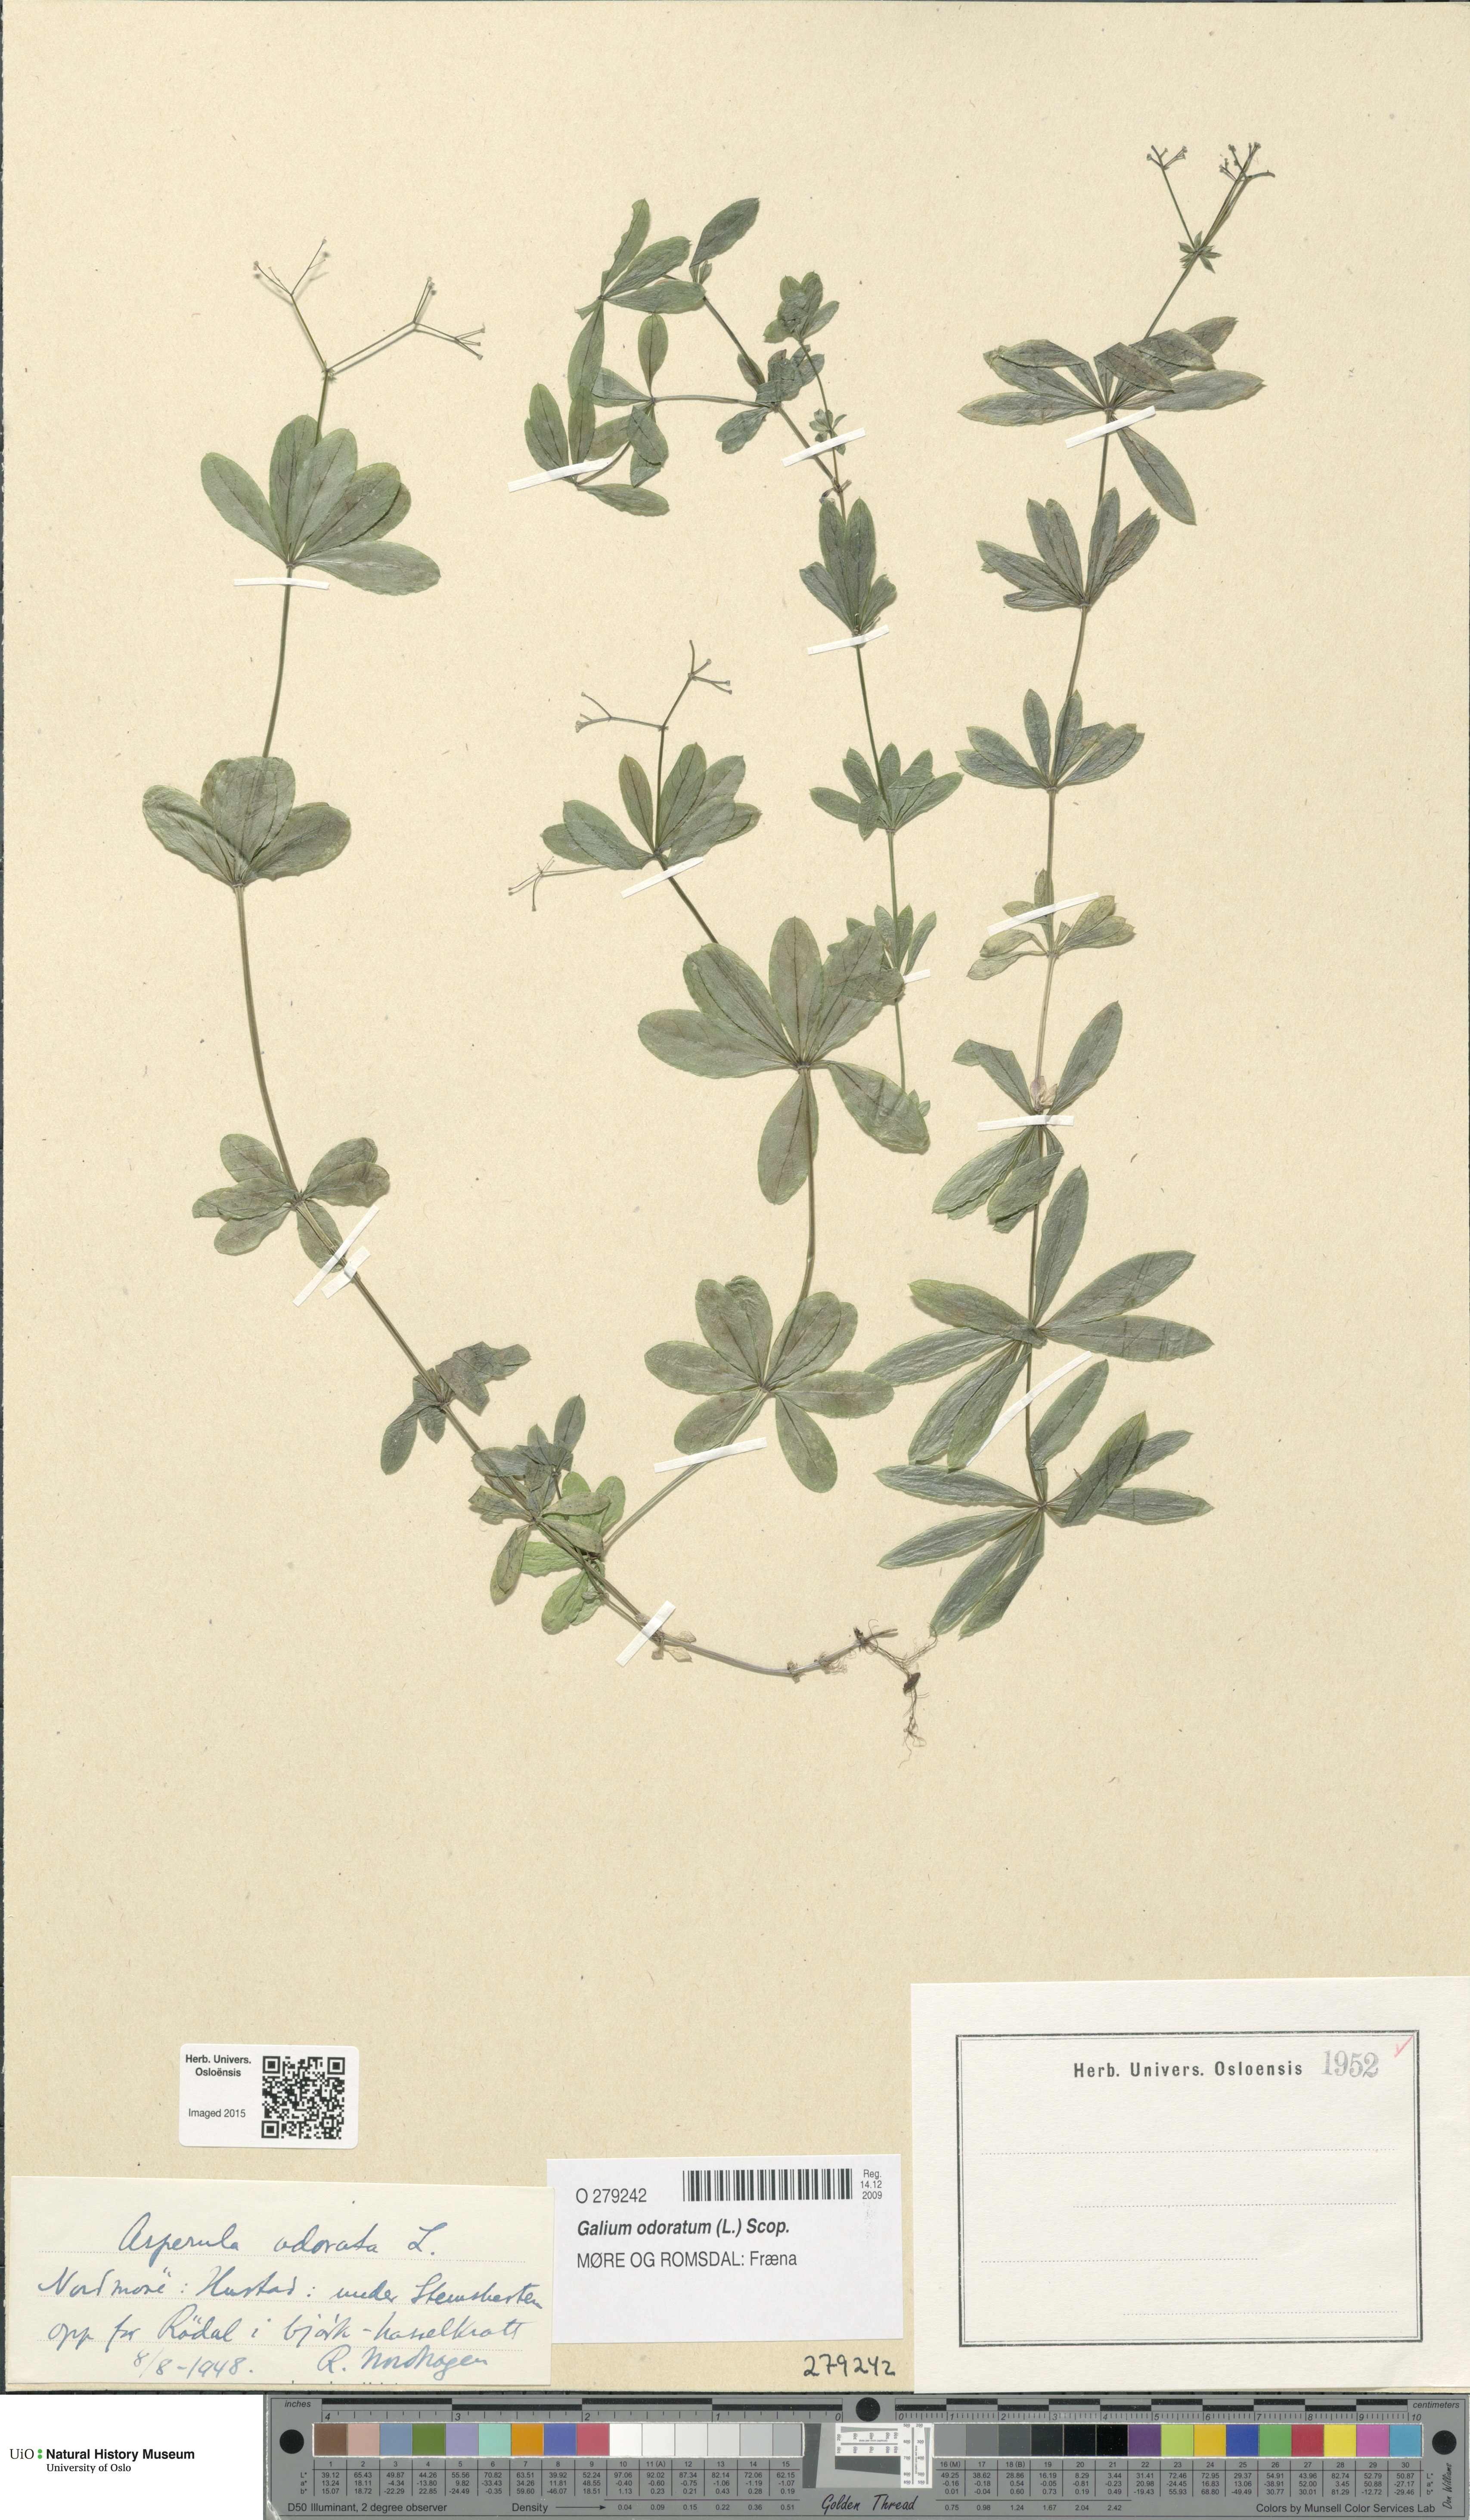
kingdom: Plantae
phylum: Tracheophyta
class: Magnoliopsida
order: Gentianales
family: Rubiaceae
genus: Galium
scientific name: Galium odoratum
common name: Sweet woodruff
